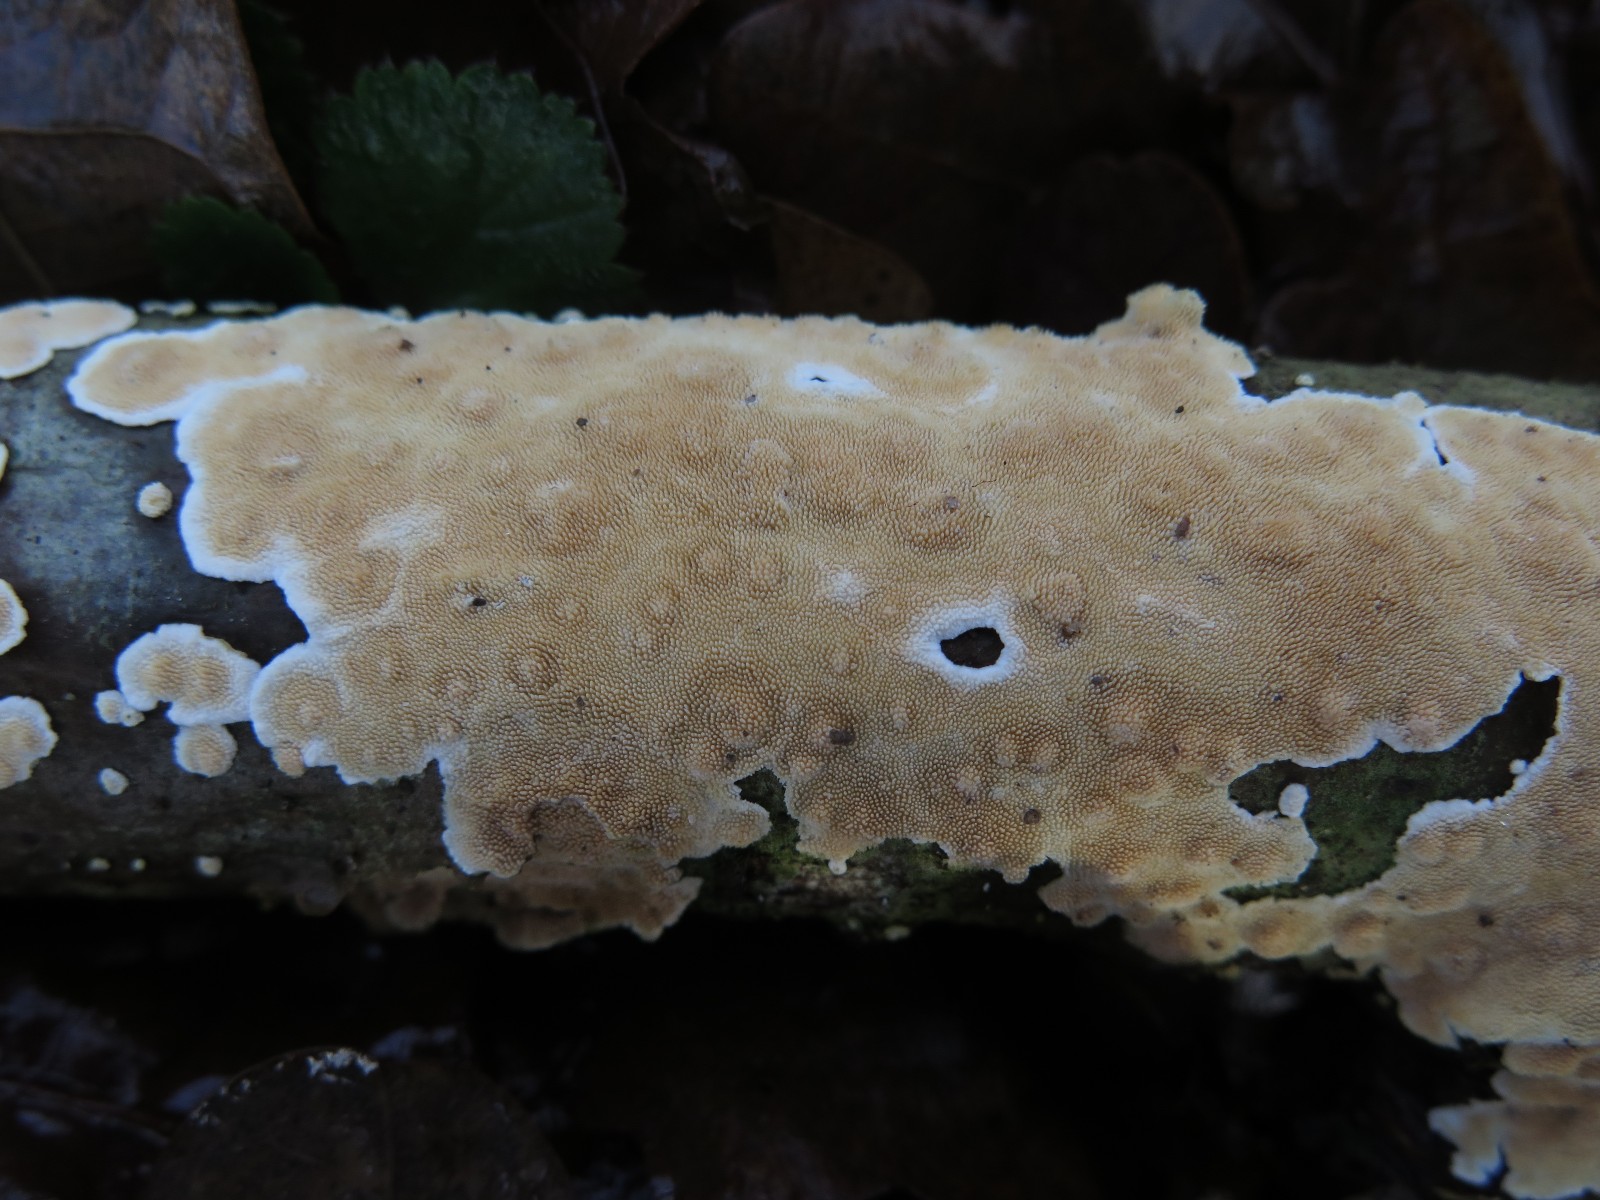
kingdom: Fungi
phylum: Basidiomycota
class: Agaricomycetes
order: Polyporales
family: Steccherinaceae
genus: Steccherinum
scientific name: Steccherinum ochraceum
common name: almindelig skønpig
